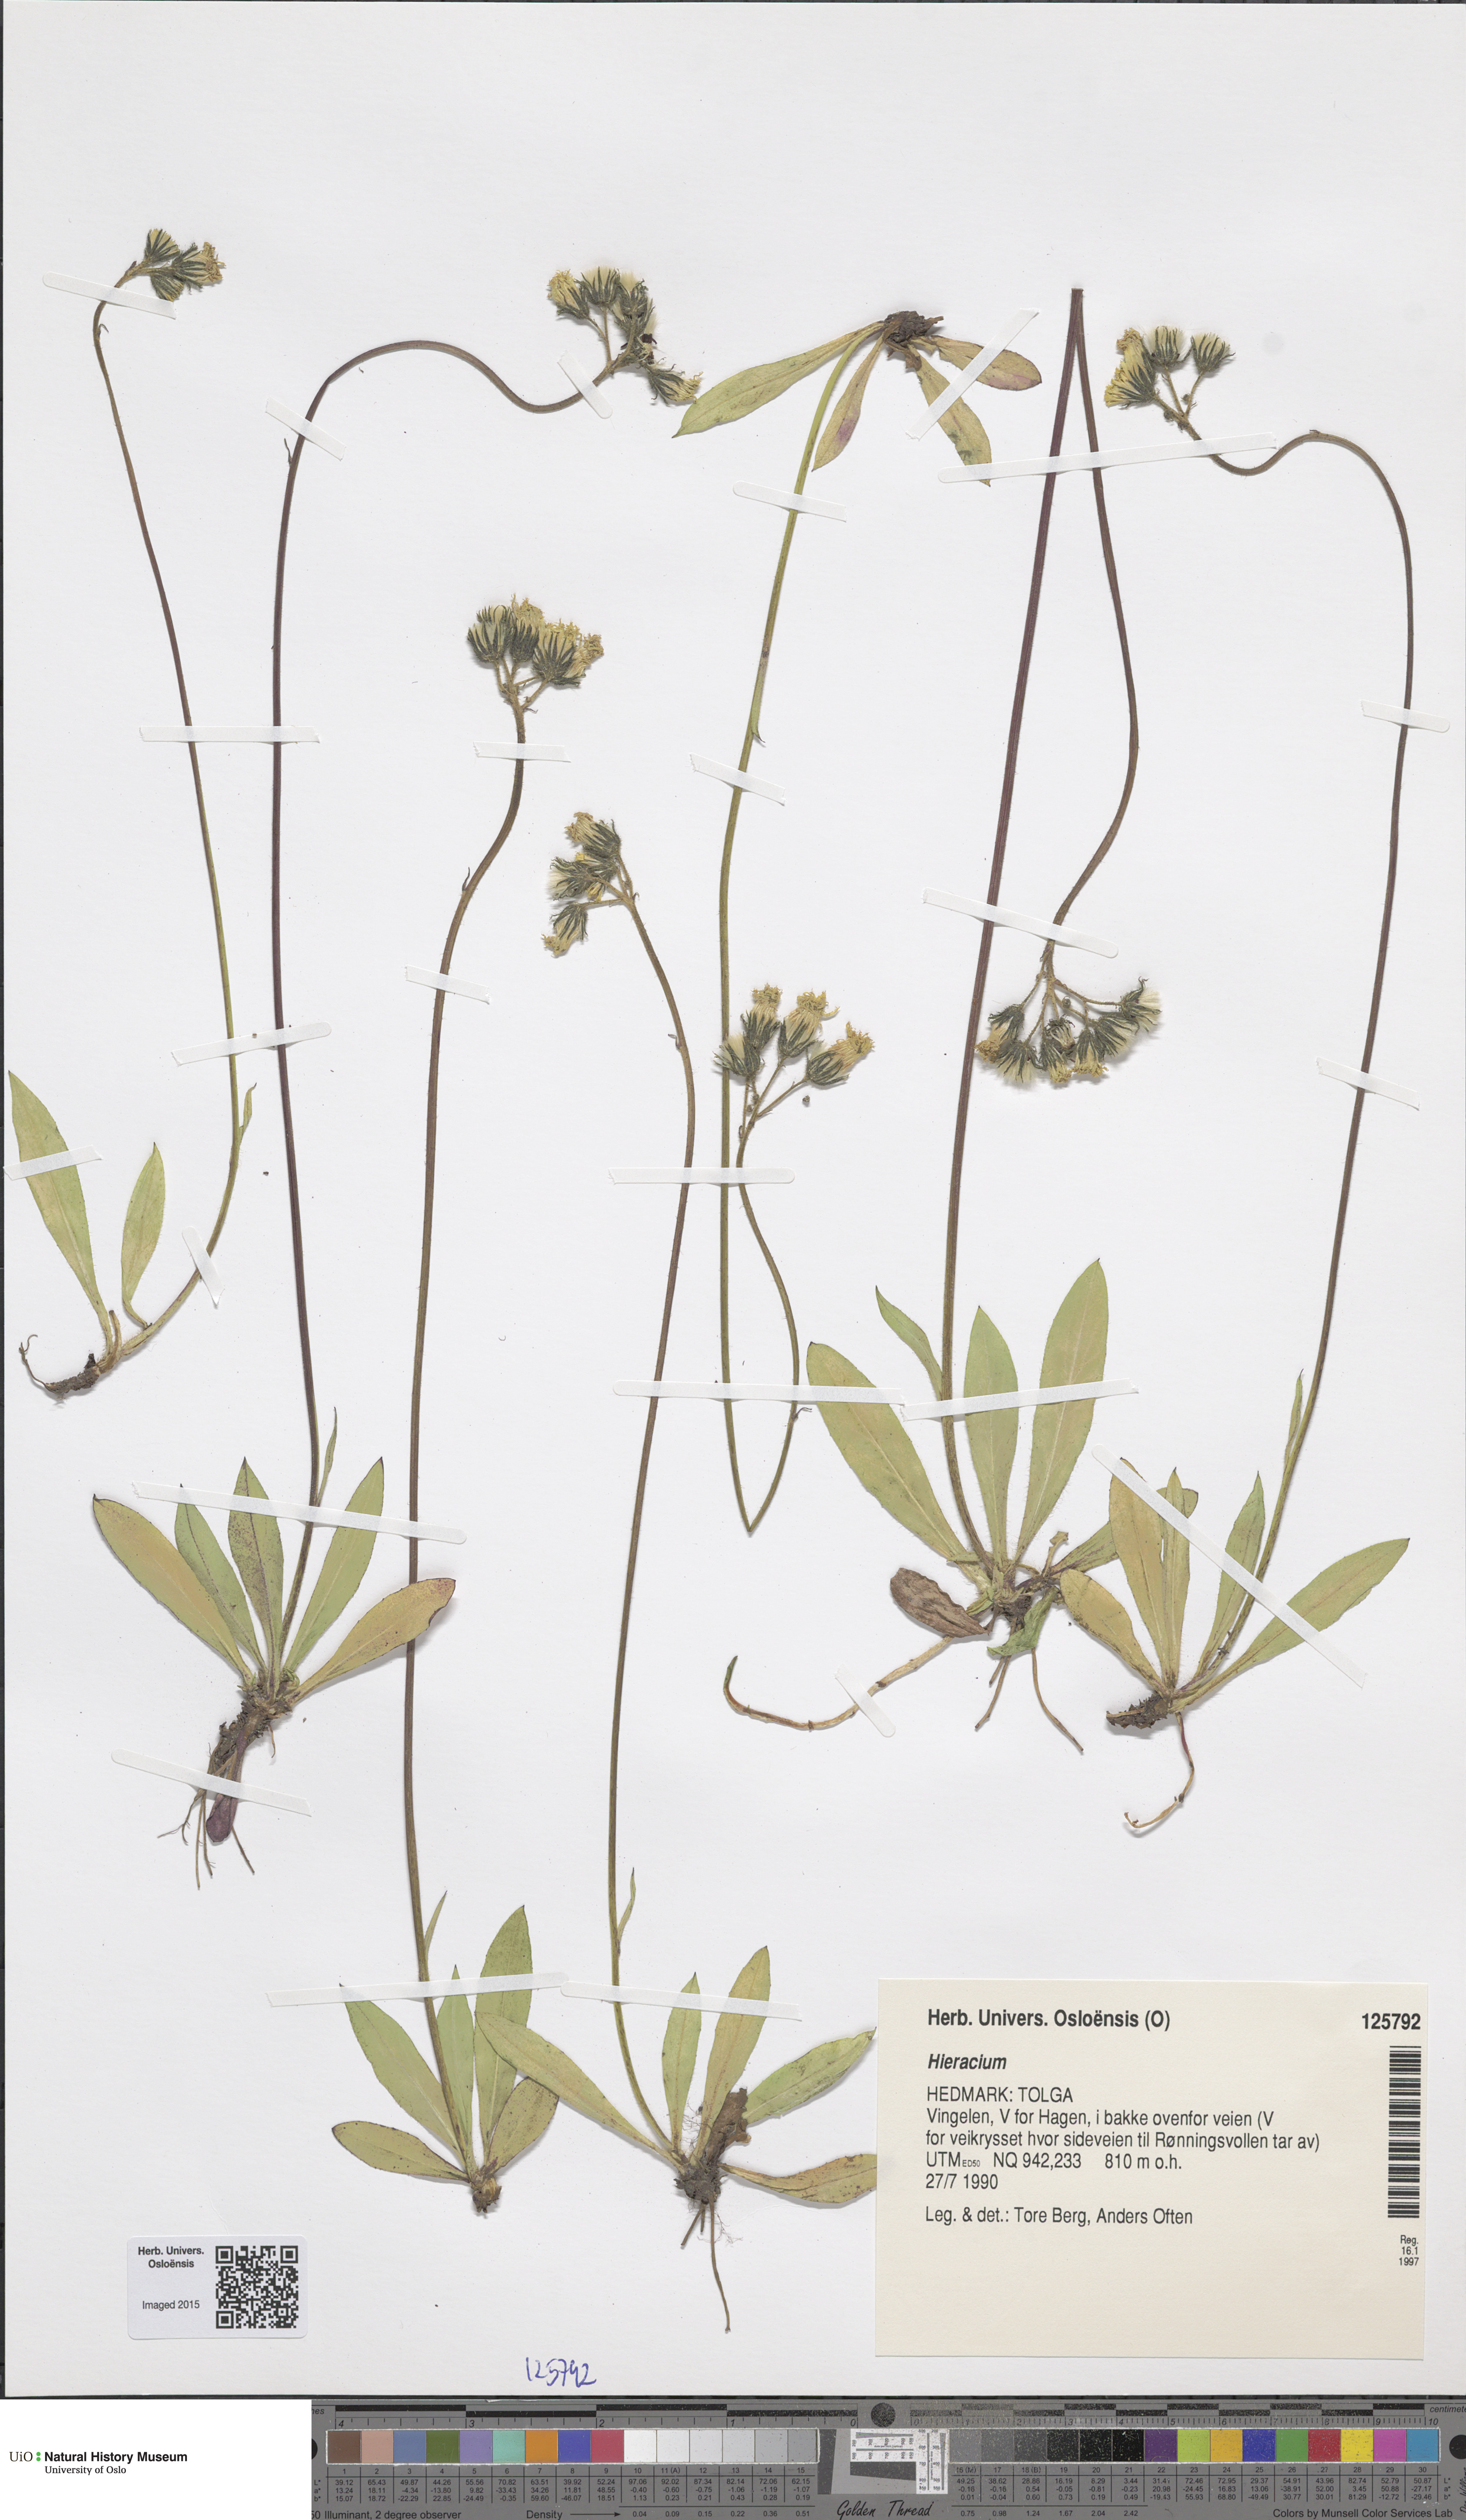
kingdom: Plantae
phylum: Tracheophyta
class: Magnoliopsida
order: Asterales
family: Asteraceae
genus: Hieracium
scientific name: Hieracium
